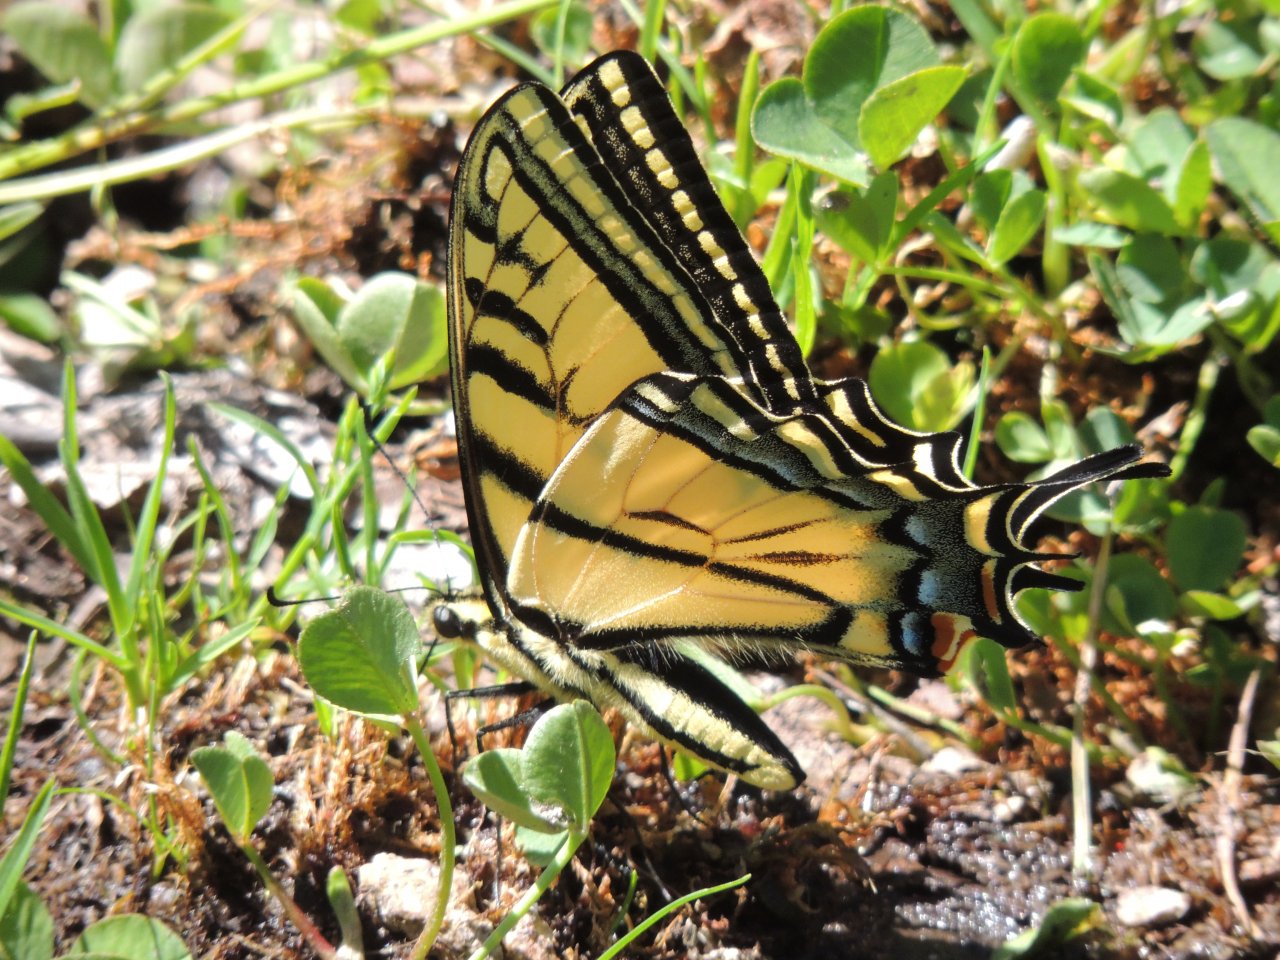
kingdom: Animalia
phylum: Arthropoda
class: Insecta
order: Lepidoptera
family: Papilionidae
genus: Papilio
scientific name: Papilio multicaudata
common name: Two-tailed Swallowtail
